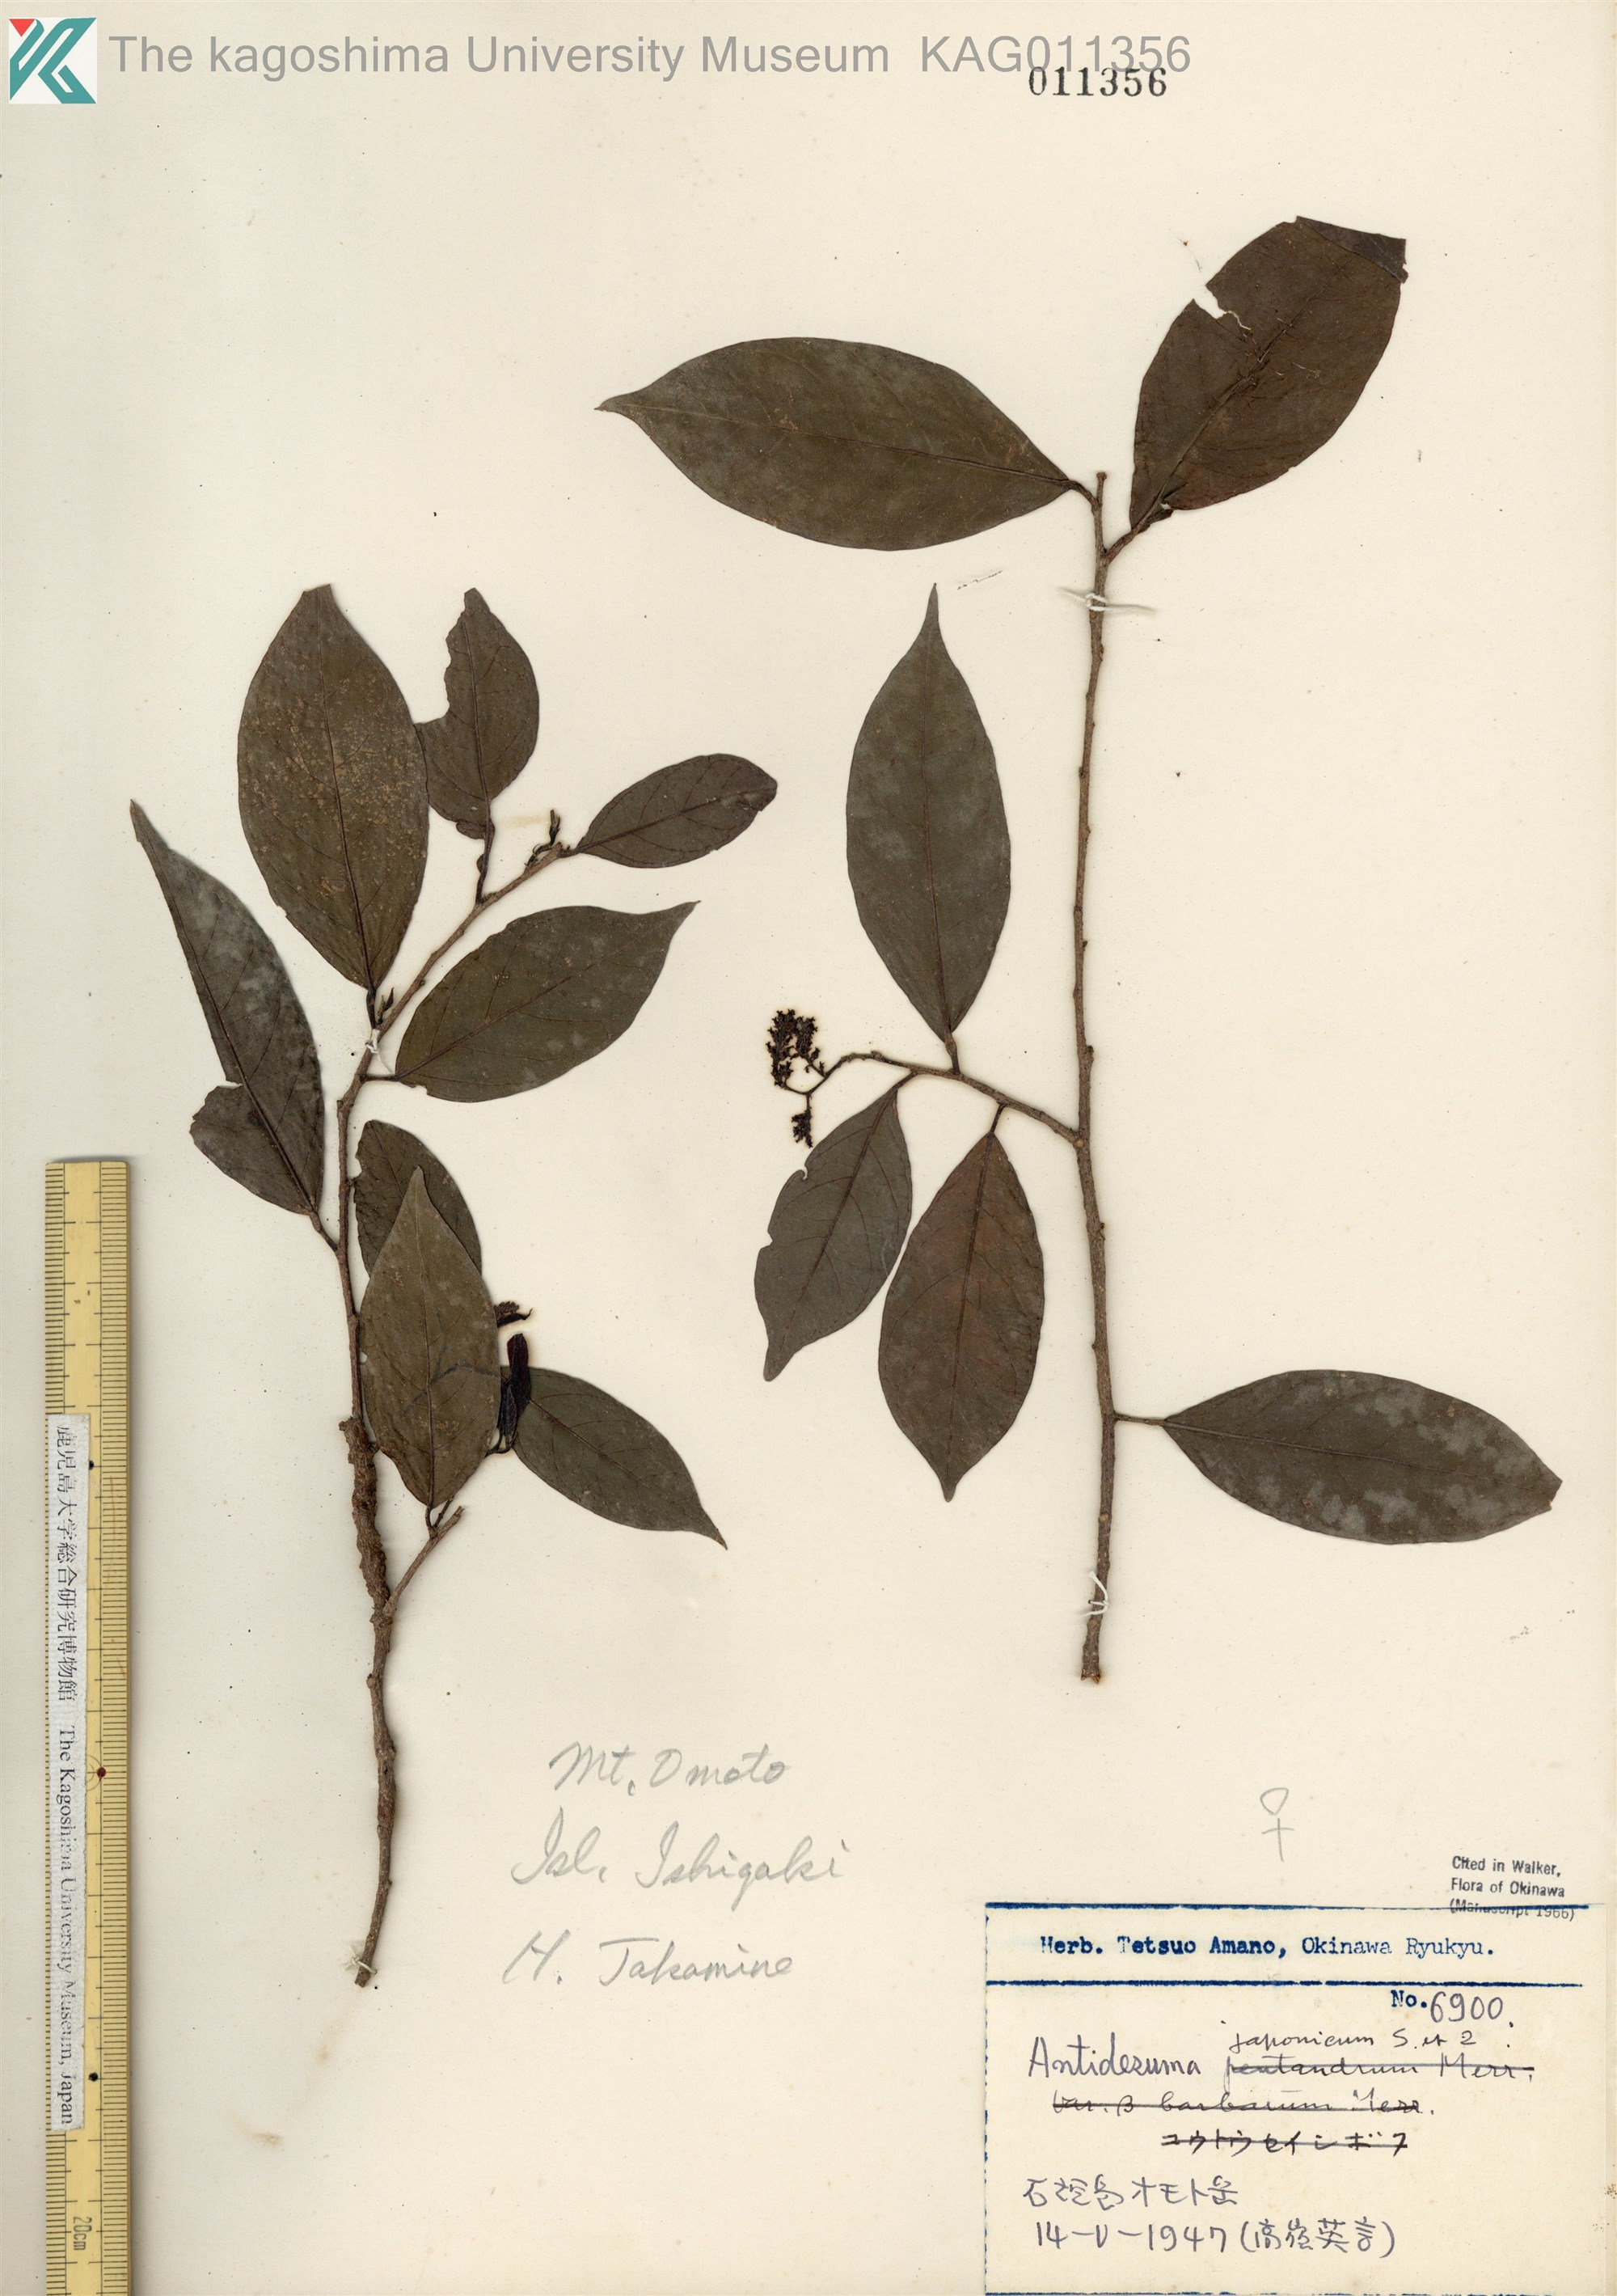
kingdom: Plantae
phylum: Tracheophyta
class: Magnoliopsida
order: Malpighiales
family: Phyllanthaceae
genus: Antidesma
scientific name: Antidesma japonicum
